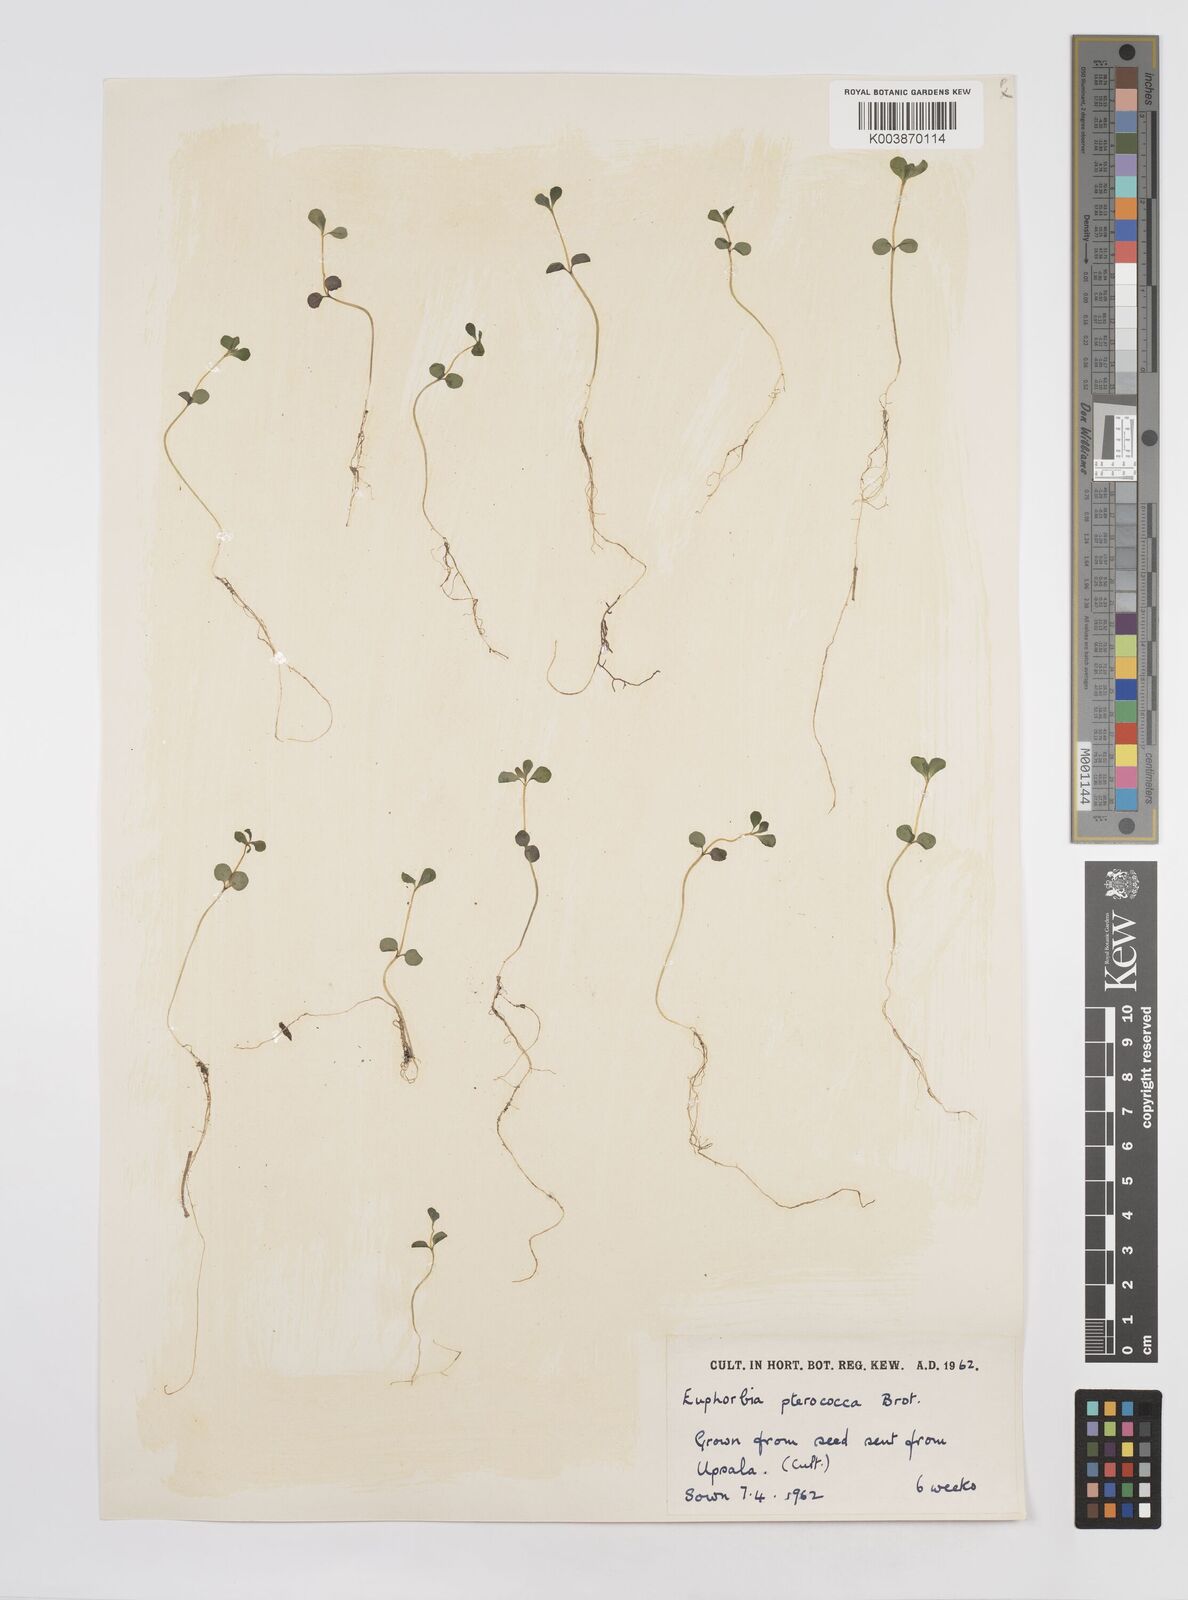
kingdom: Plantae
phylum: Tracheophyta
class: Magnoliopsida
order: Malpighiales
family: Euphorbiaceae
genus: Euphorbia
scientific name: Euphorbia pterococca
